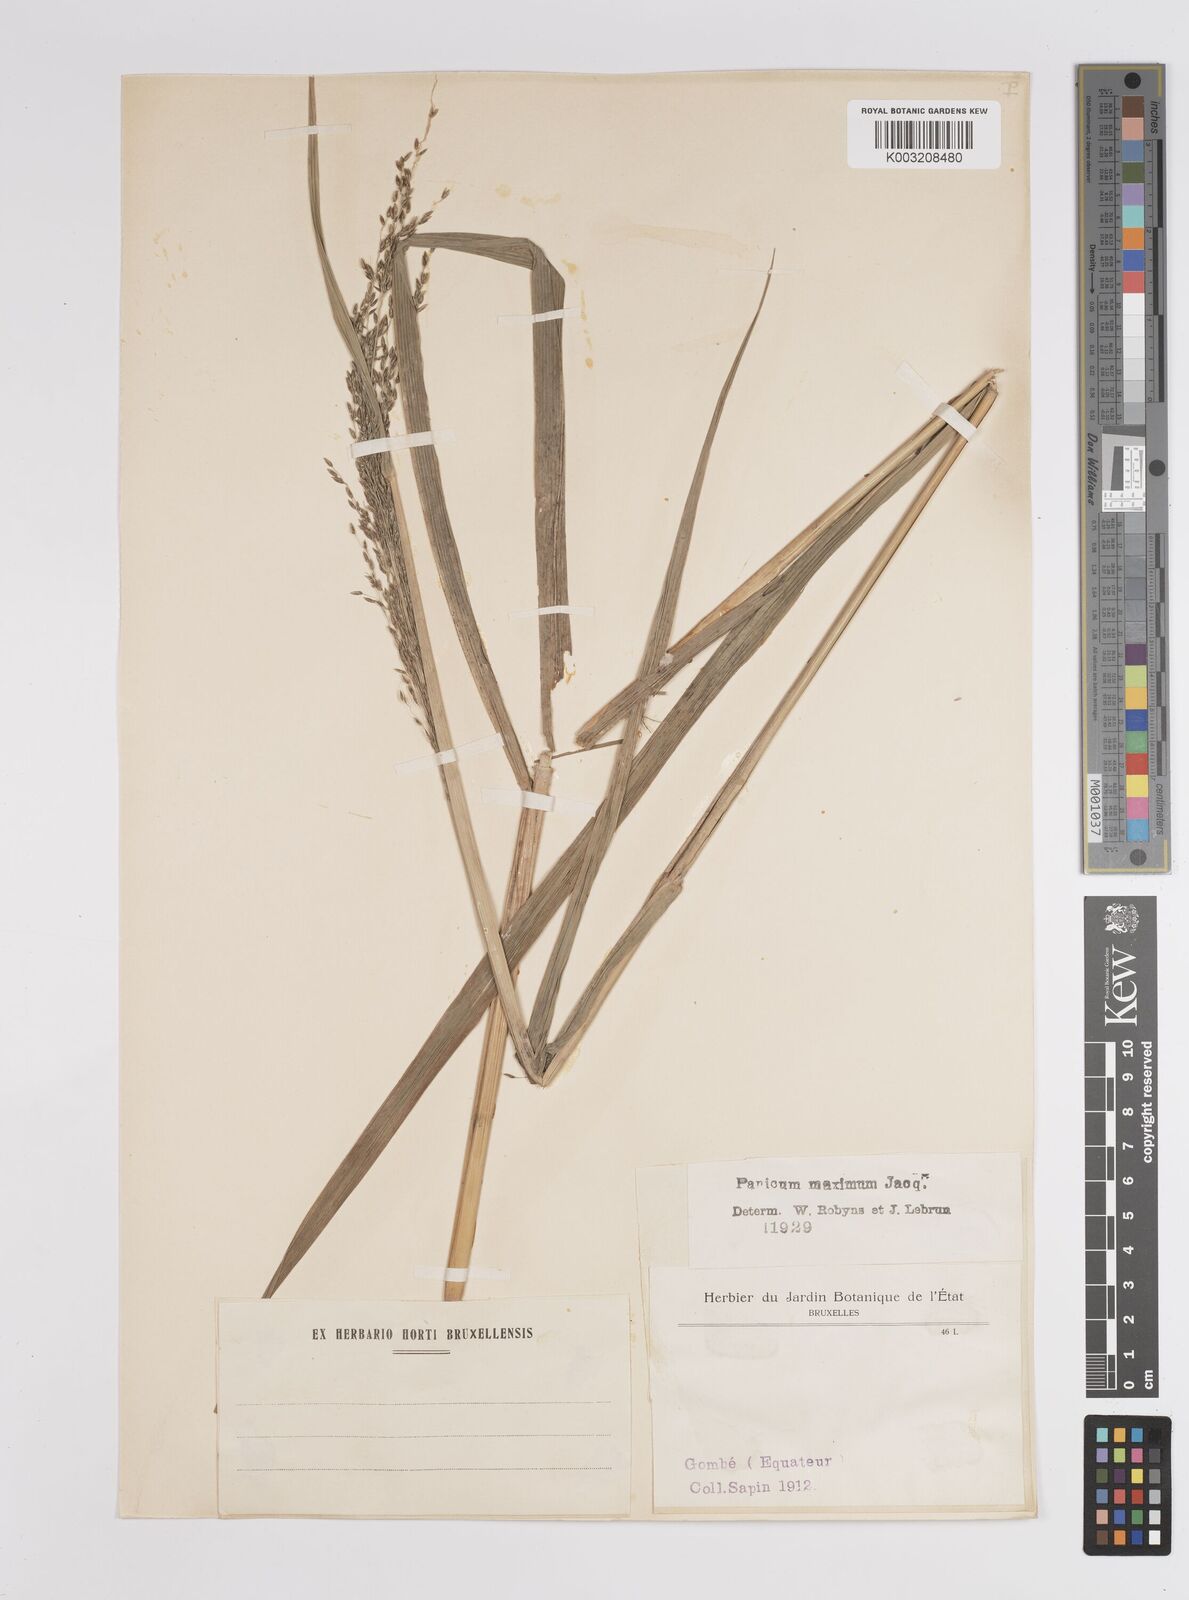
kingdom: Plantae
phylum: Tracheophyta
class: Liliopsida
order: Poales
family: Poaceae
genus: Megathyrsus
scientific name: Megathyrsus maximus
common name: Guineagrass
